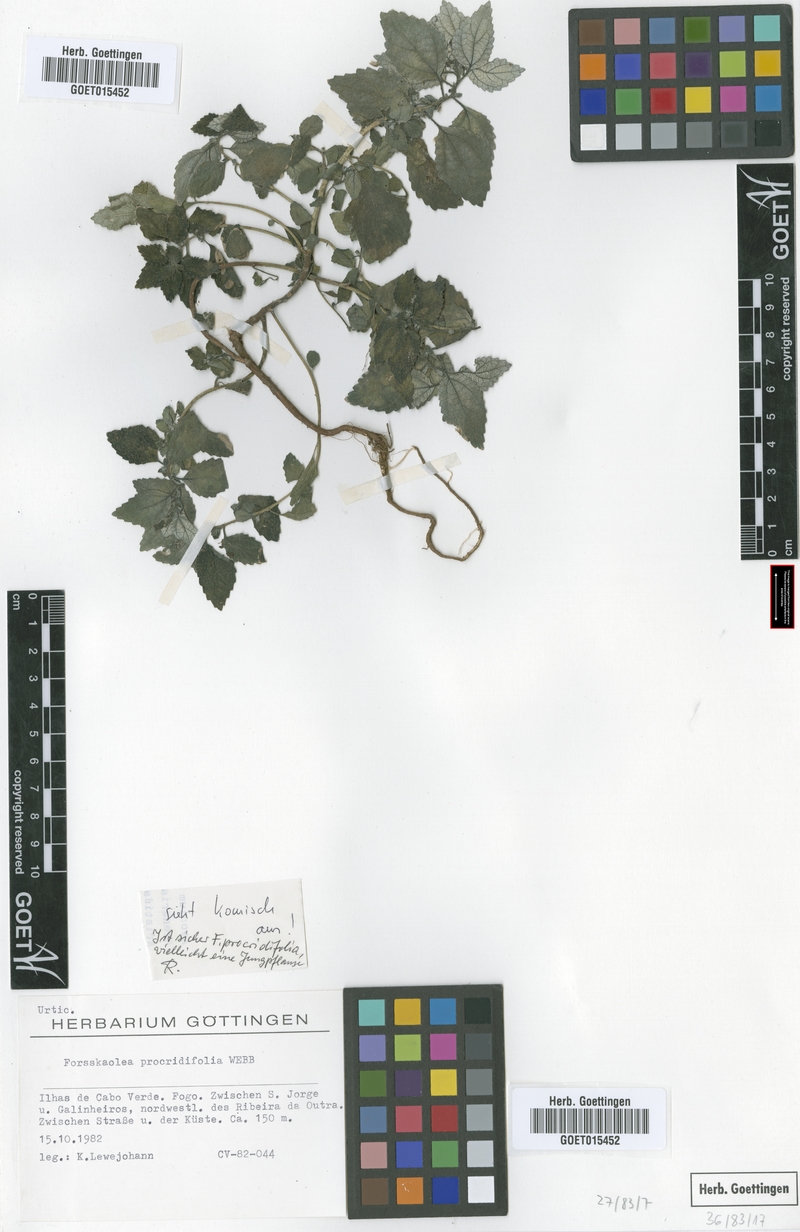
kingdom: Plantae
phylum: Tracheophyta
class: Magnoliopsida
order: Rosales
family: Urticaceae
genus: Forsskaolea
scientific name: Forsskaolea procridifolia
